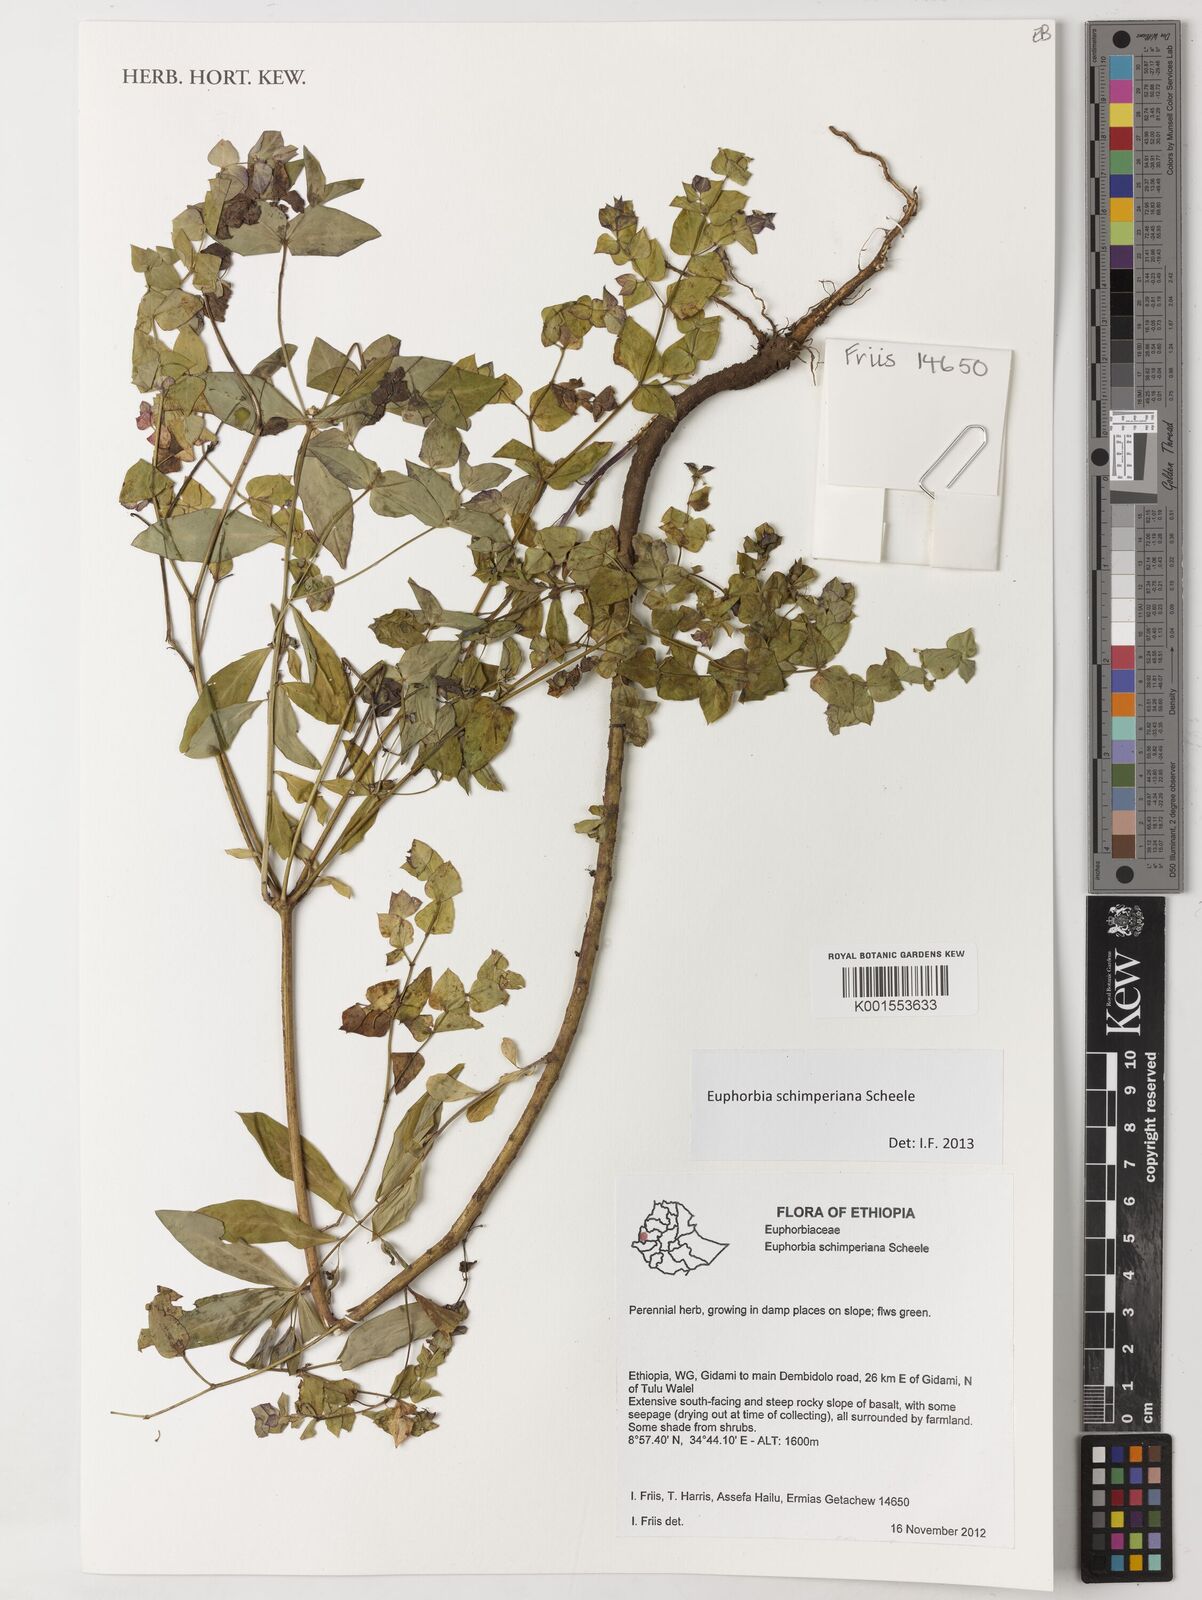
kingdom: Plantae
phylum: Tracheophyta
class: Magnoliopsida
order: Malpighiales
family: Euphorbiaceae
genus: Euphorbia
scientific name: Euphorbia schimperiana
